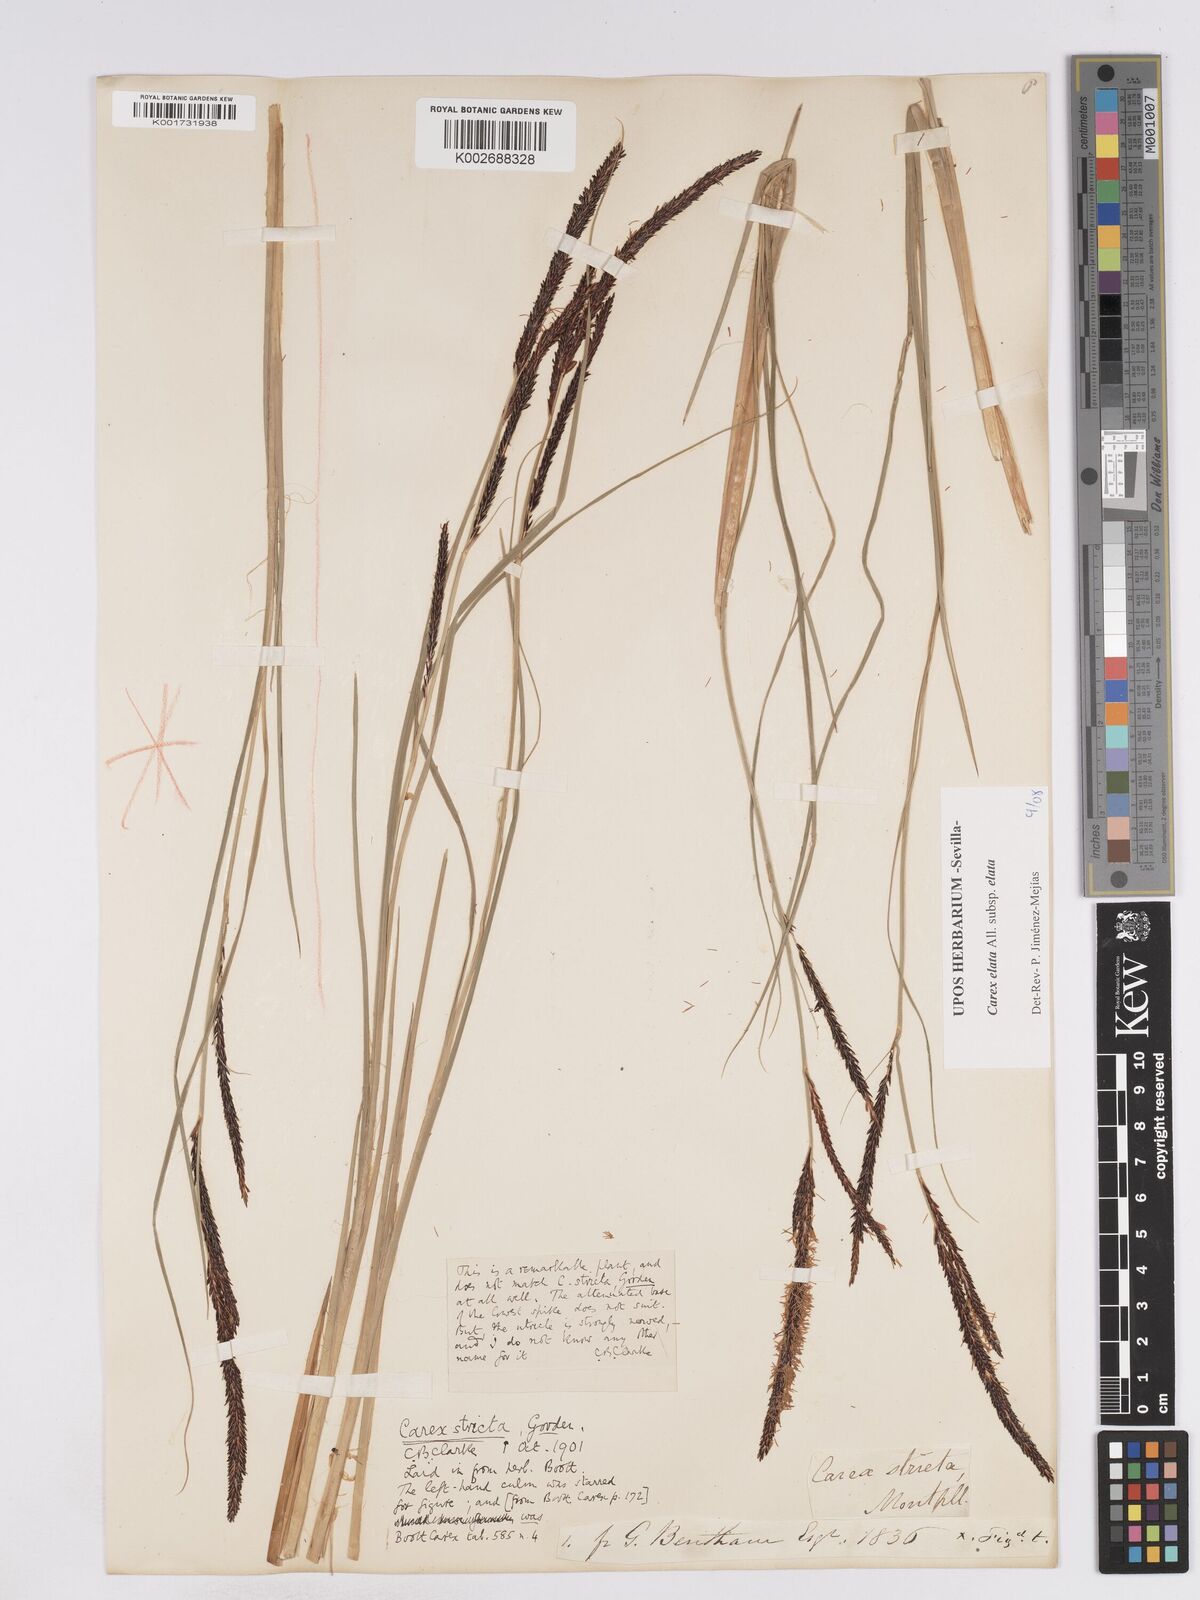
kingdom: Plantae
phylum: Tracheophyta
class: Liliopsida
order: Poales
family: Cyperaceae
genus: Carex
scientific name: Carex elata
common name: Tufted sedge
